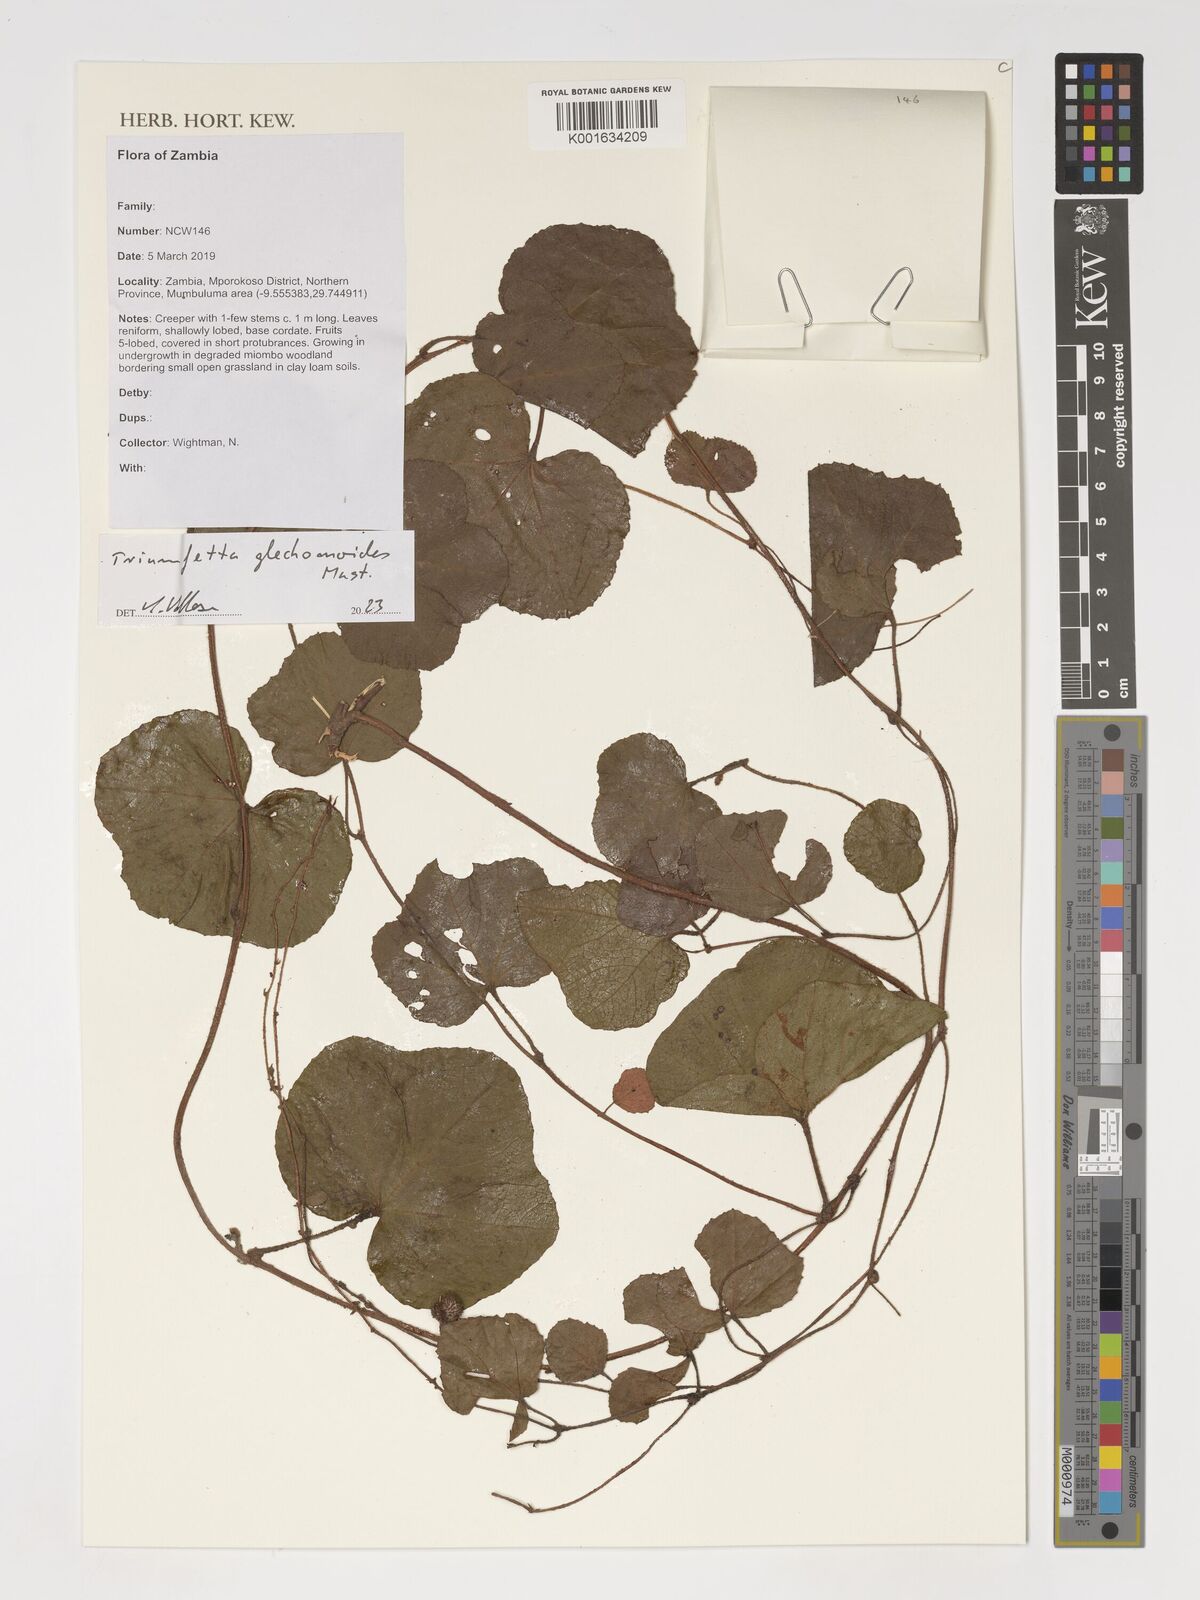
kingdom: Plantae
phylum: Tracheophyta
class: Magnoliopsida
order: Malvales
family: Malvaceae
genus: Triumfetta
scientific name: Triumfetta glechomoides
